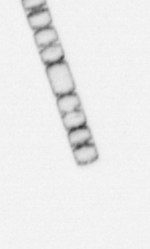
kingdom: Chromista
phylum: Ochrophyta
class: Bacillariophyceae
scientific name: Bacillariophyceae
